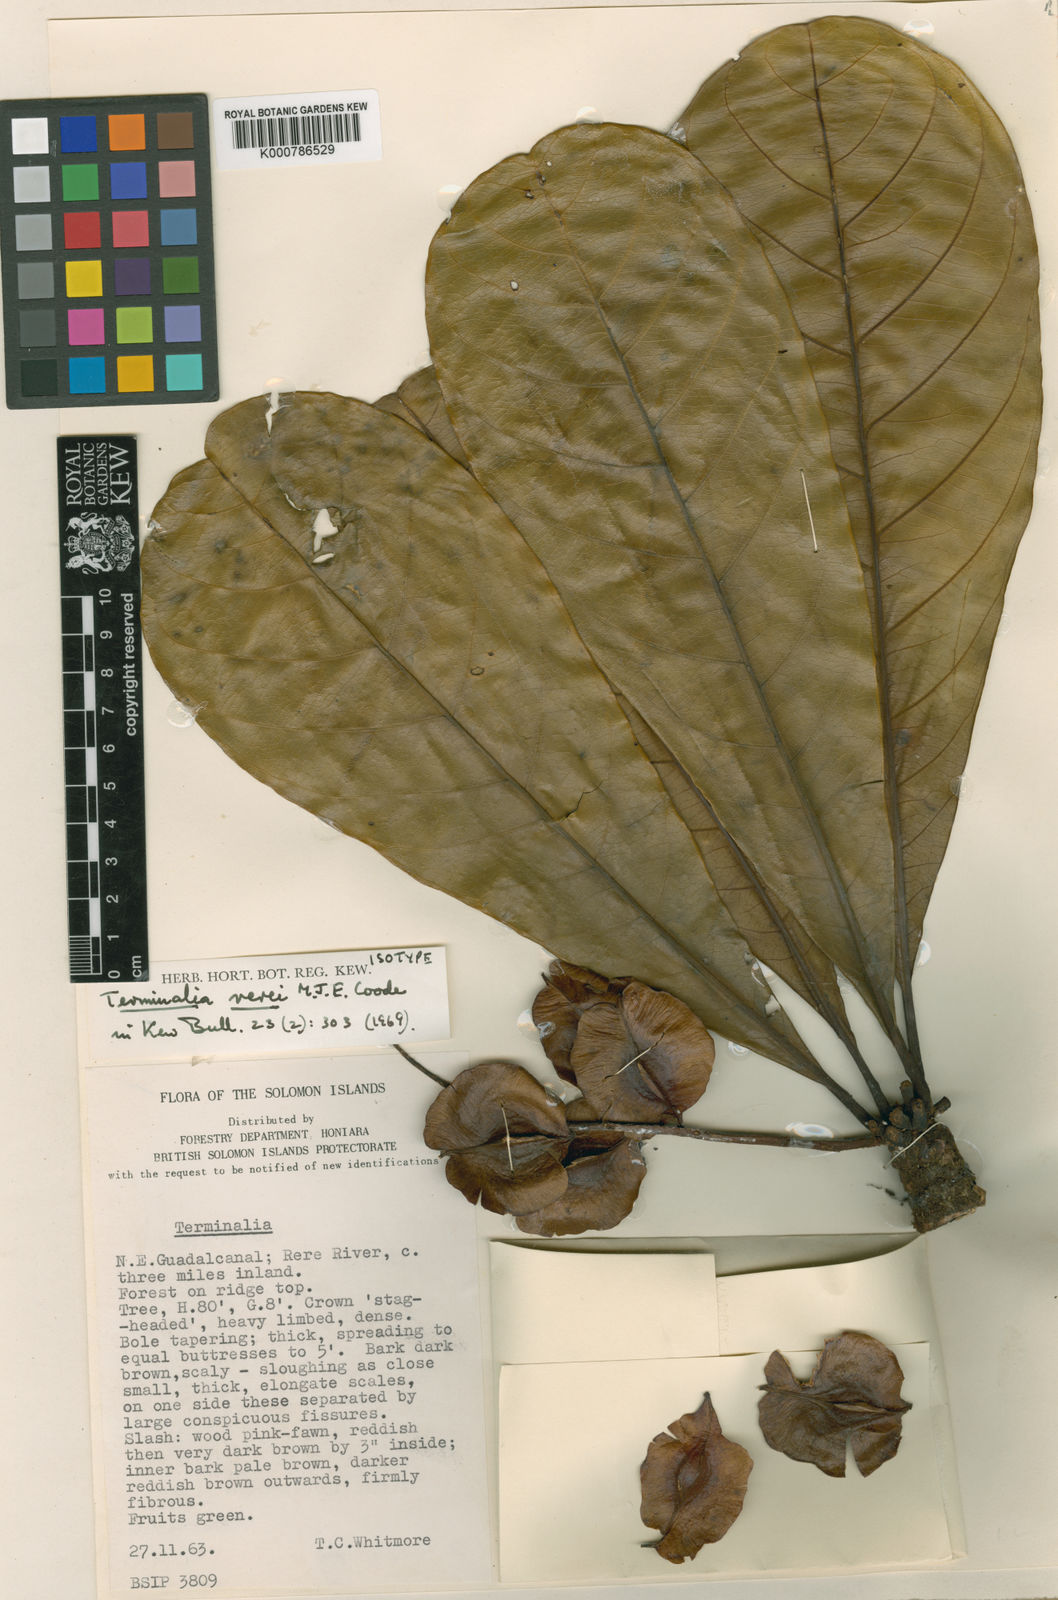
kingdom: Plantae
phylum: Tracheophyta
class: Magnoliopsida
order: Myrtales
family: Combretaceae
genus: Terminalia
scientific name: Terminalia rerei
